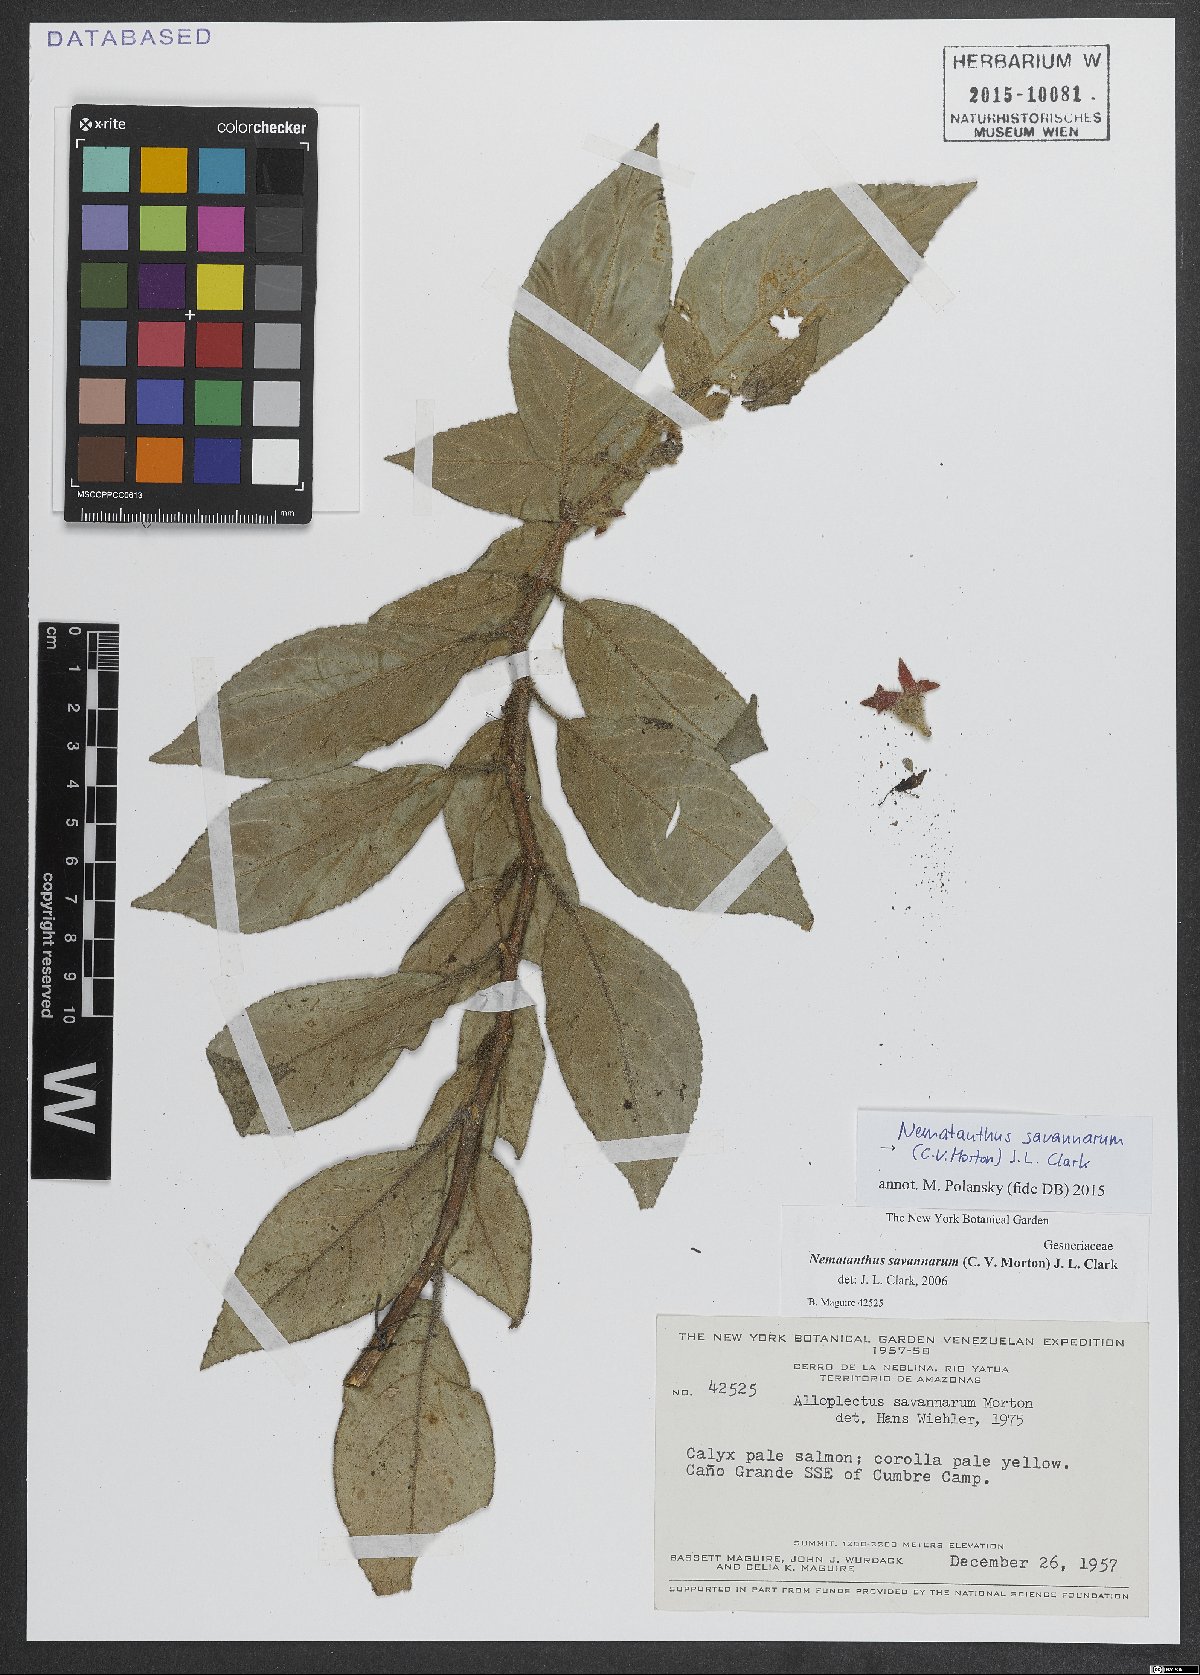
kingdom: Plantae
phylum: Tracheophyta
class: Magnoliopsida
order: Lamiales
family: Gesneriaceae
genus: Lesia
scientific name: Lesia savannarum
